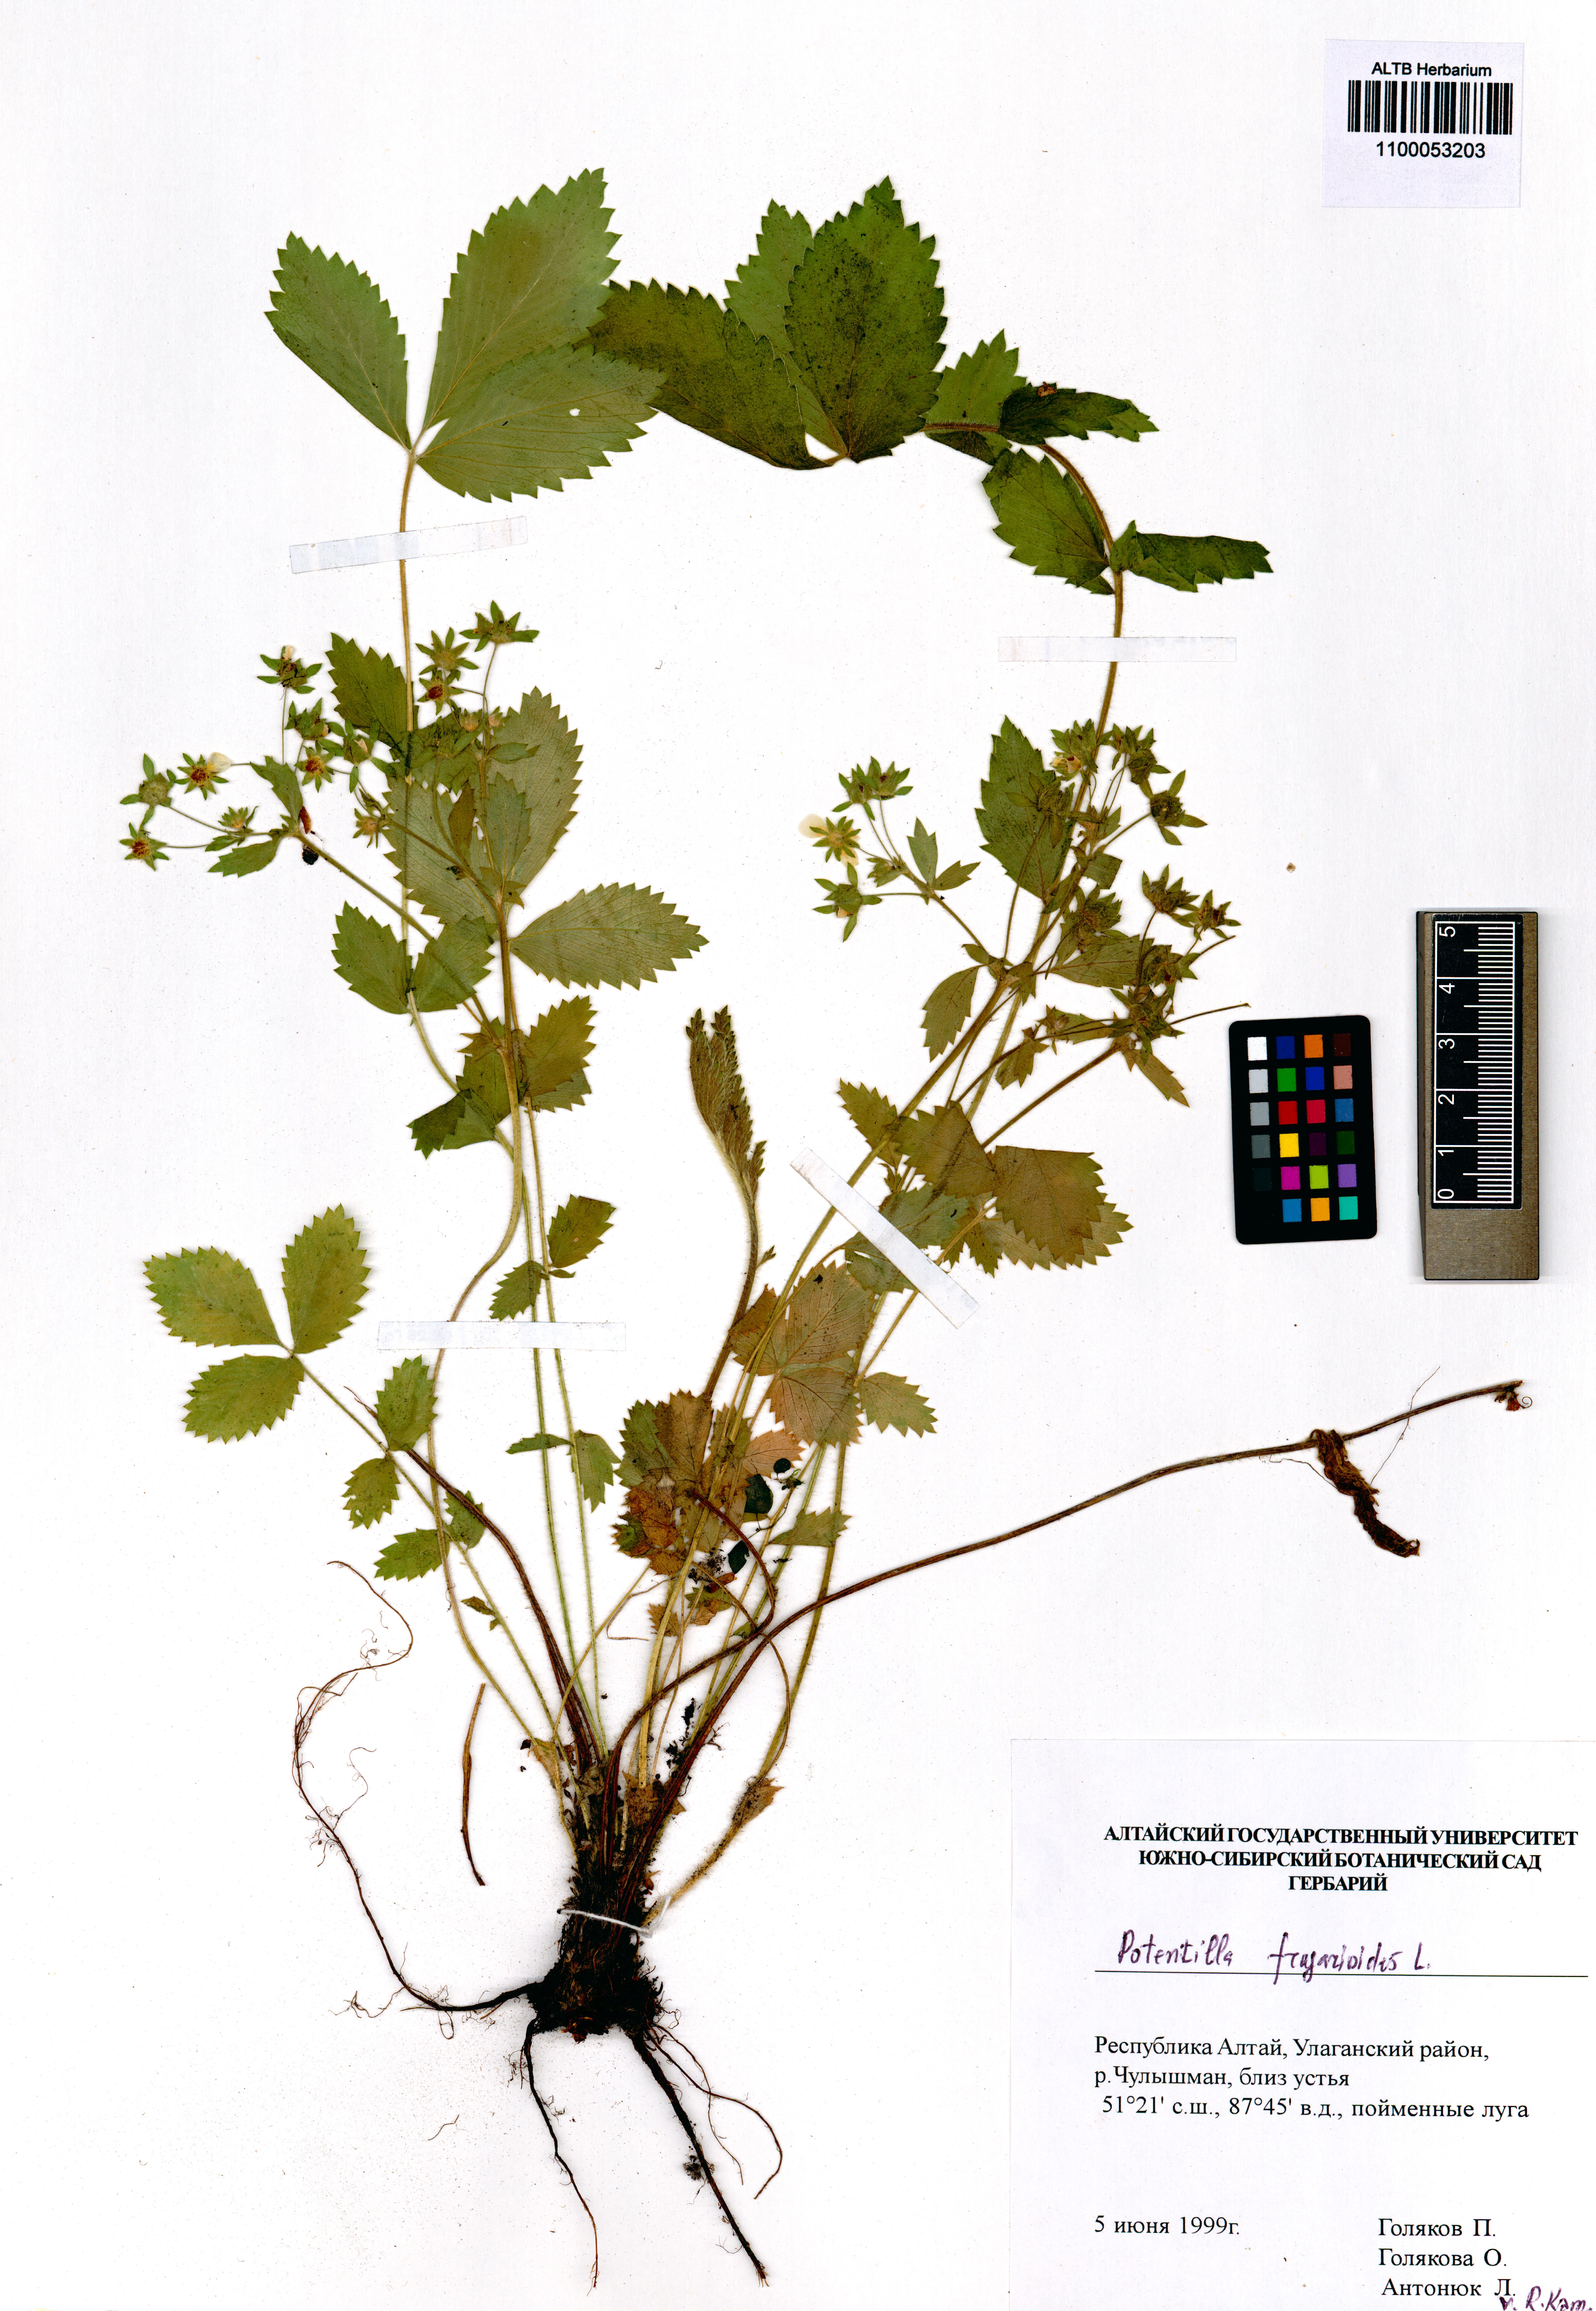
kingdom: Plantae
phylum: Tracheophyta
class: Magnoliopsida
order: Rosales
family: Rosaceae
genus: Potentilla
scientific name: Potentilla fragarioides
